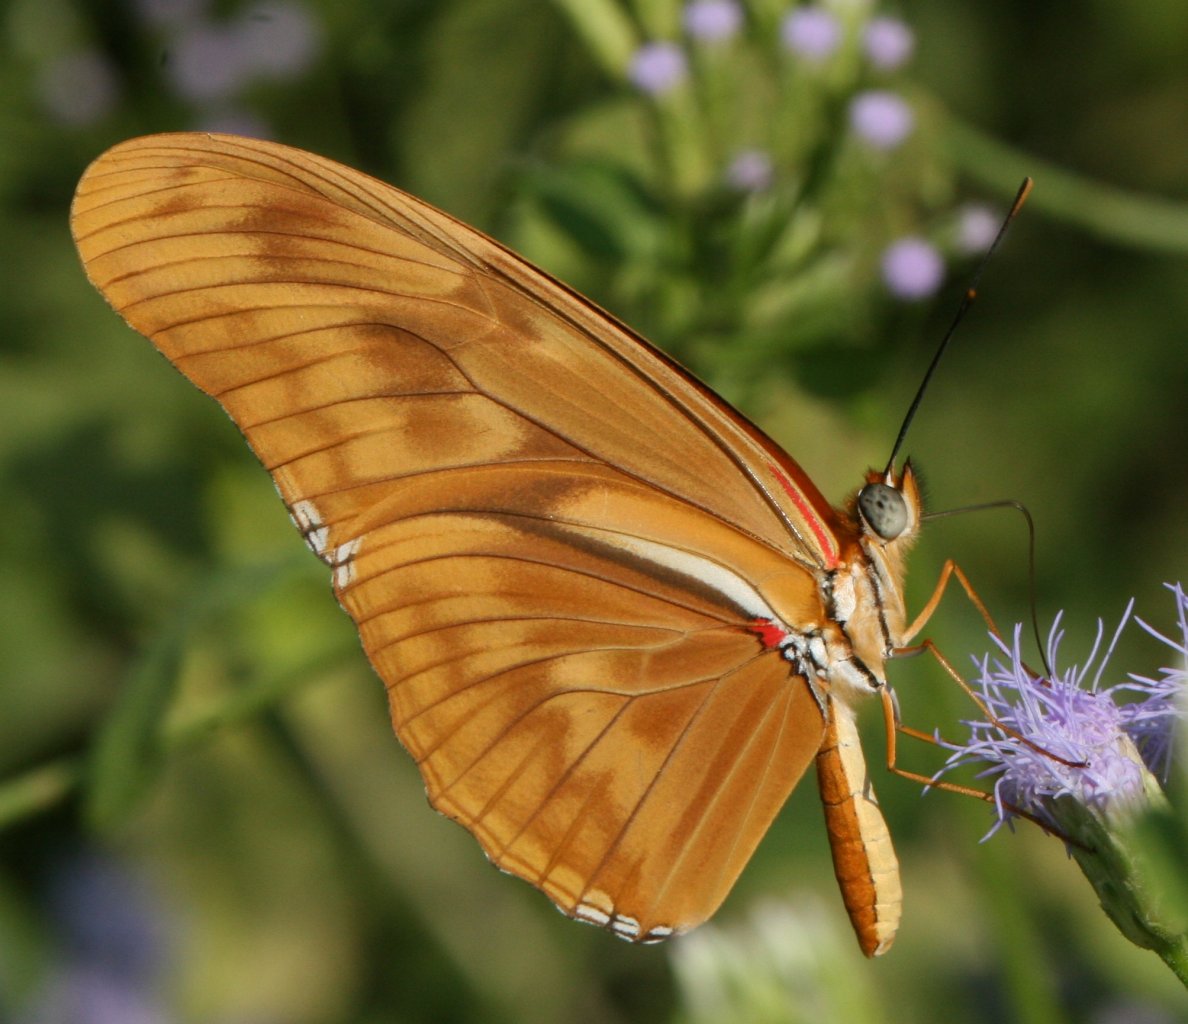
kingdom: Animalia
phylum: Arthropoda
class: Insecta
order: Lepidoptera
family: Nymphalidae
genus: Dryas
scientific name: Dryas iulia
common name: Julia
